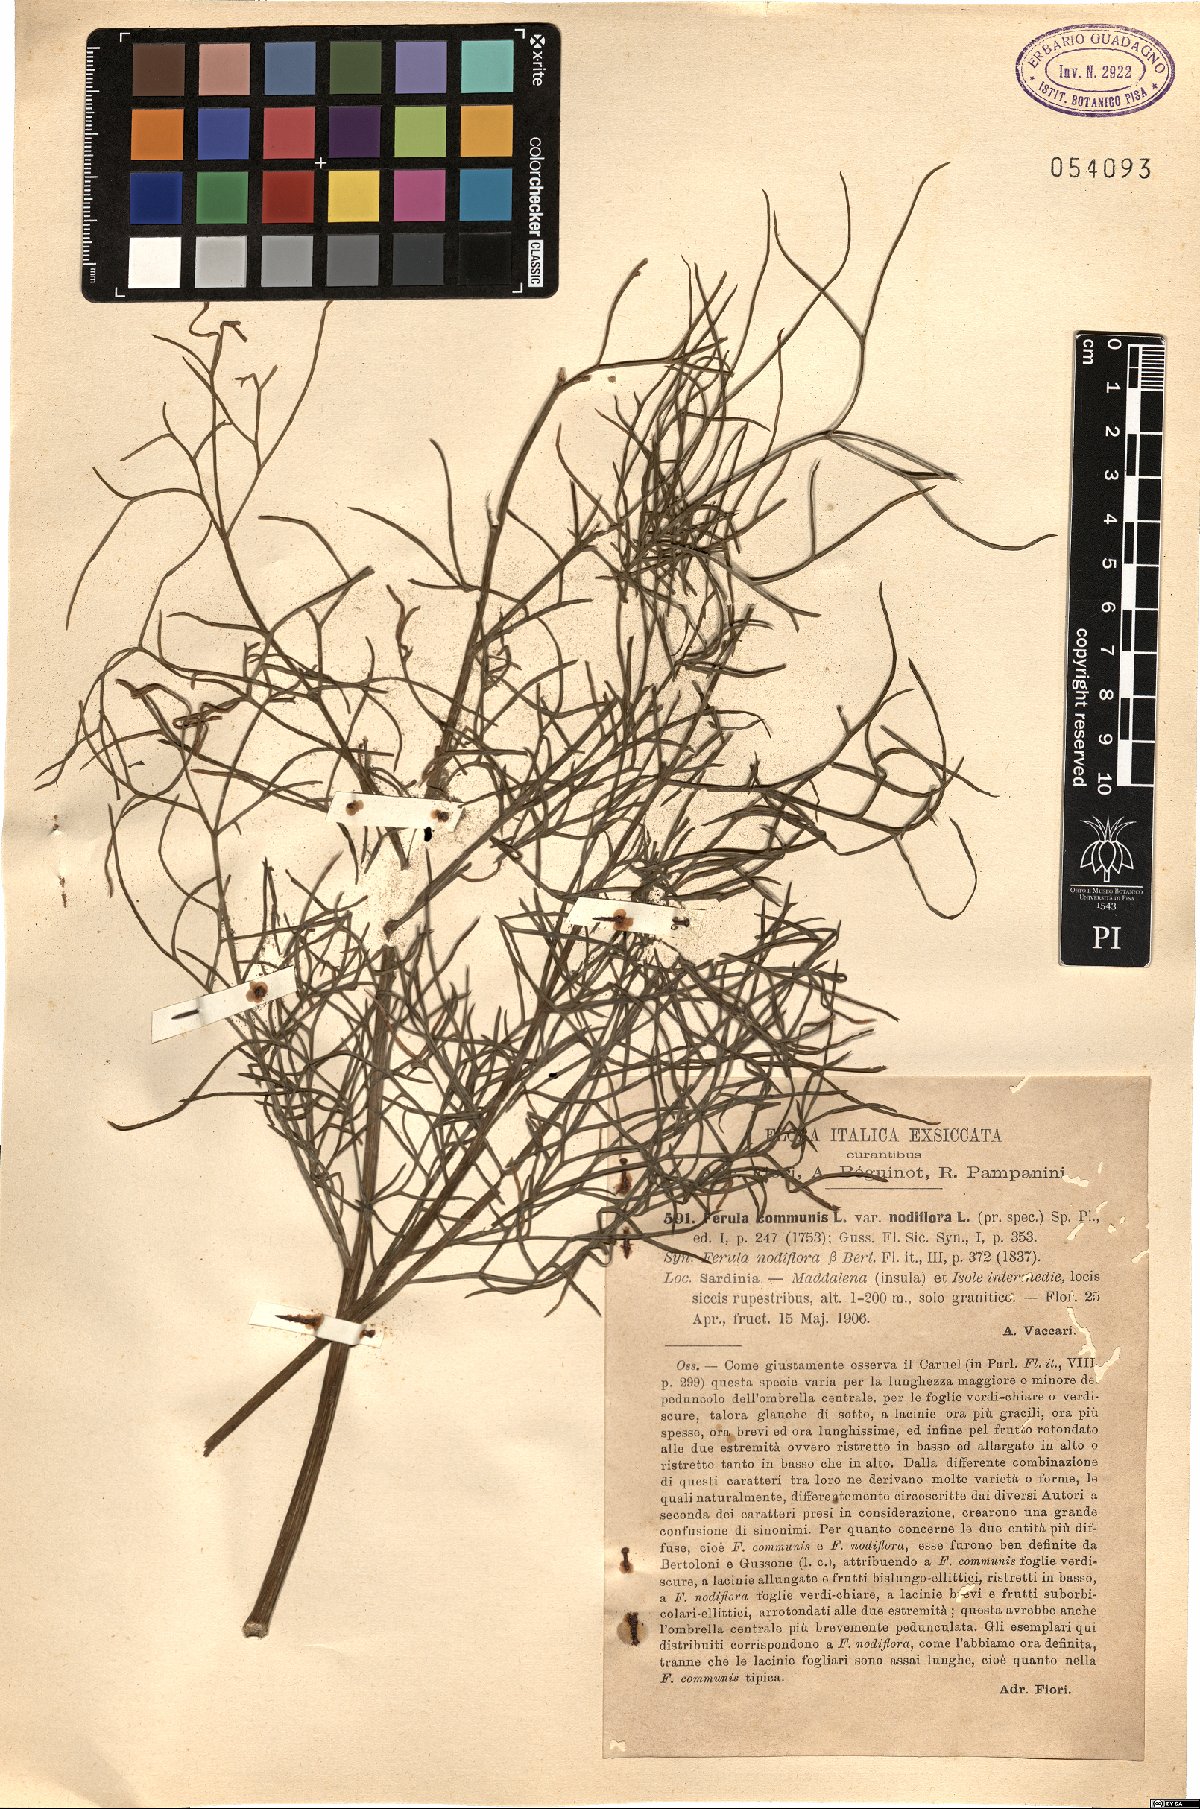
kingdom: Plantae
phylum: Tracheophyta
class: Magnoliopsida
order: Apiales
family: Apiaceae
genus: Ferula
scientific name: Ferula communis
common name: Giant fennel
